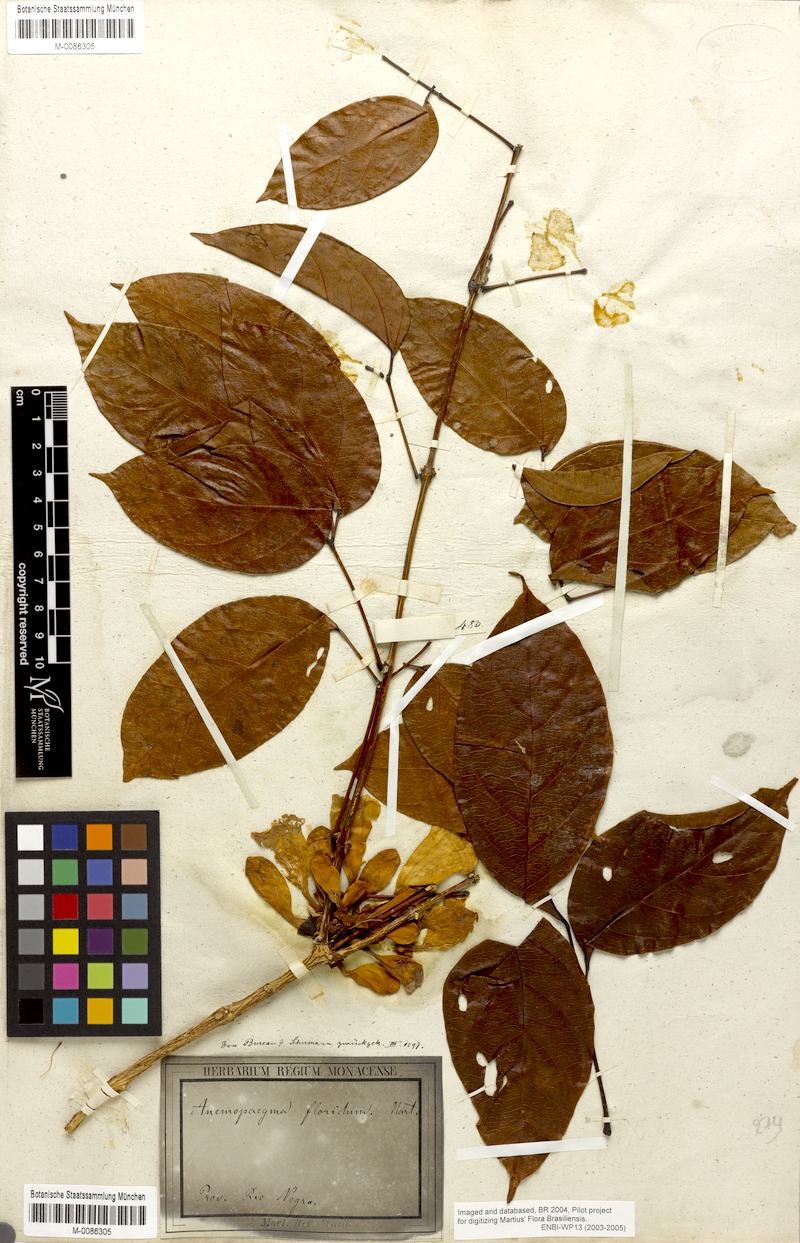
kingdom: Plantae
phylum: Tracheophyta
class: Magnoliopsida
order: Lamiales
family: Bignoniaceae
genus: Anemopaegma
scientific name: Anemopaegma floridum
